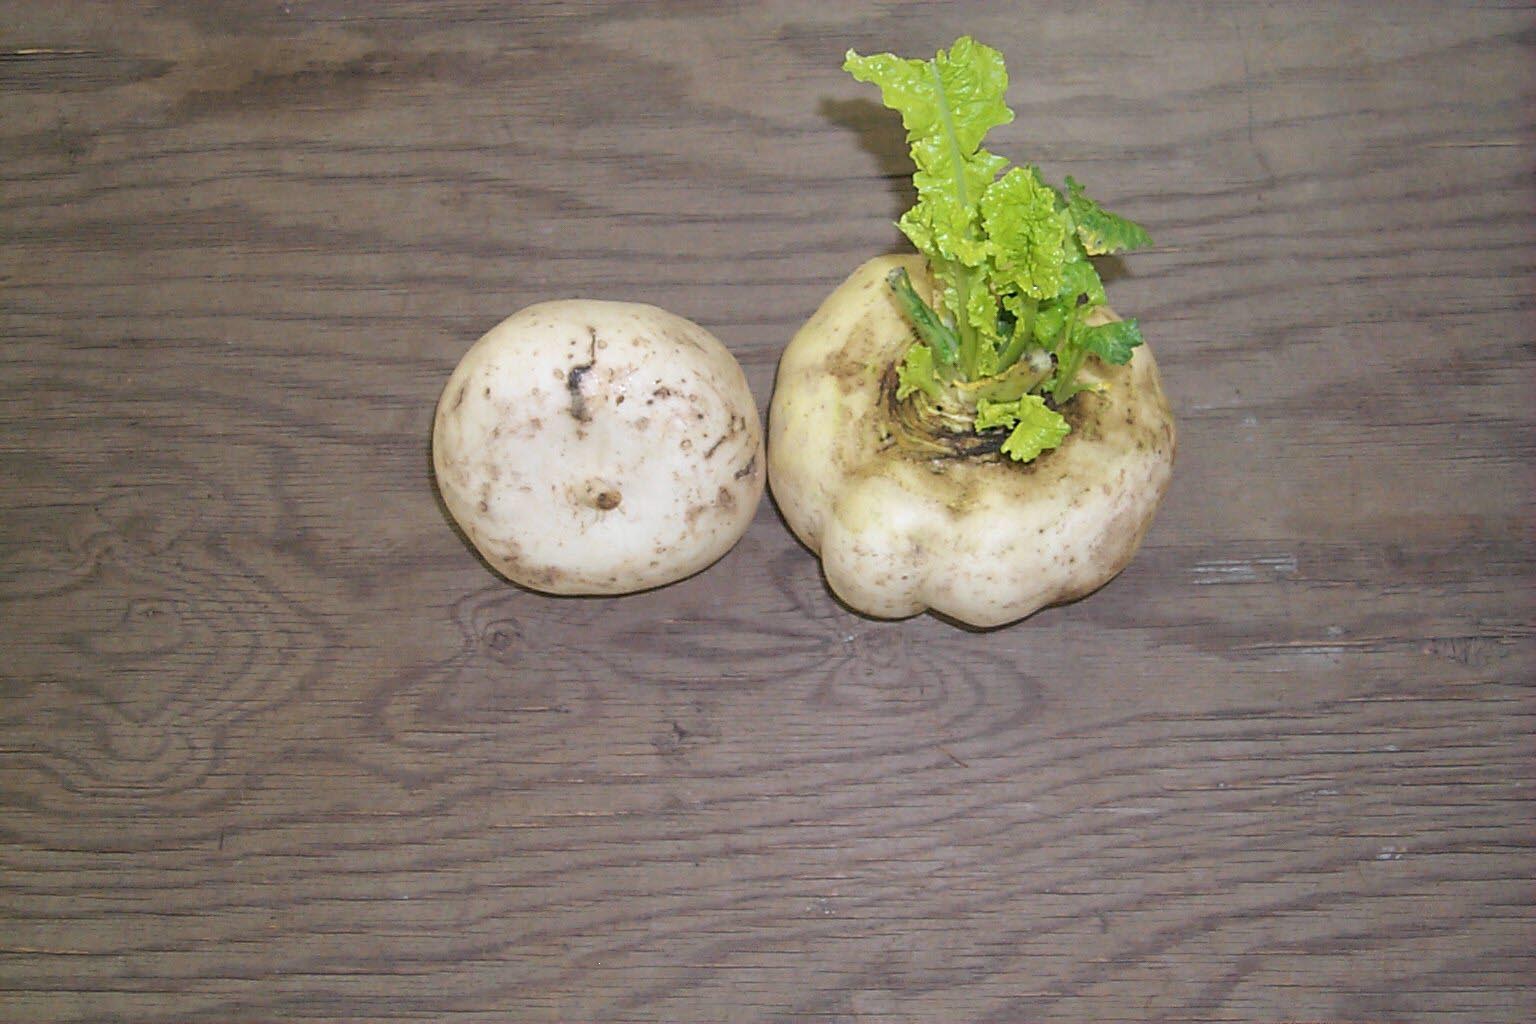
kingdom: Plantae
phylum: Tracheophyta
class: Magnoliopsida
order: Brassicales
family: Brassicaceae
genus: Brassica
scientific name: Brassica rapa
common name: Field mustard
